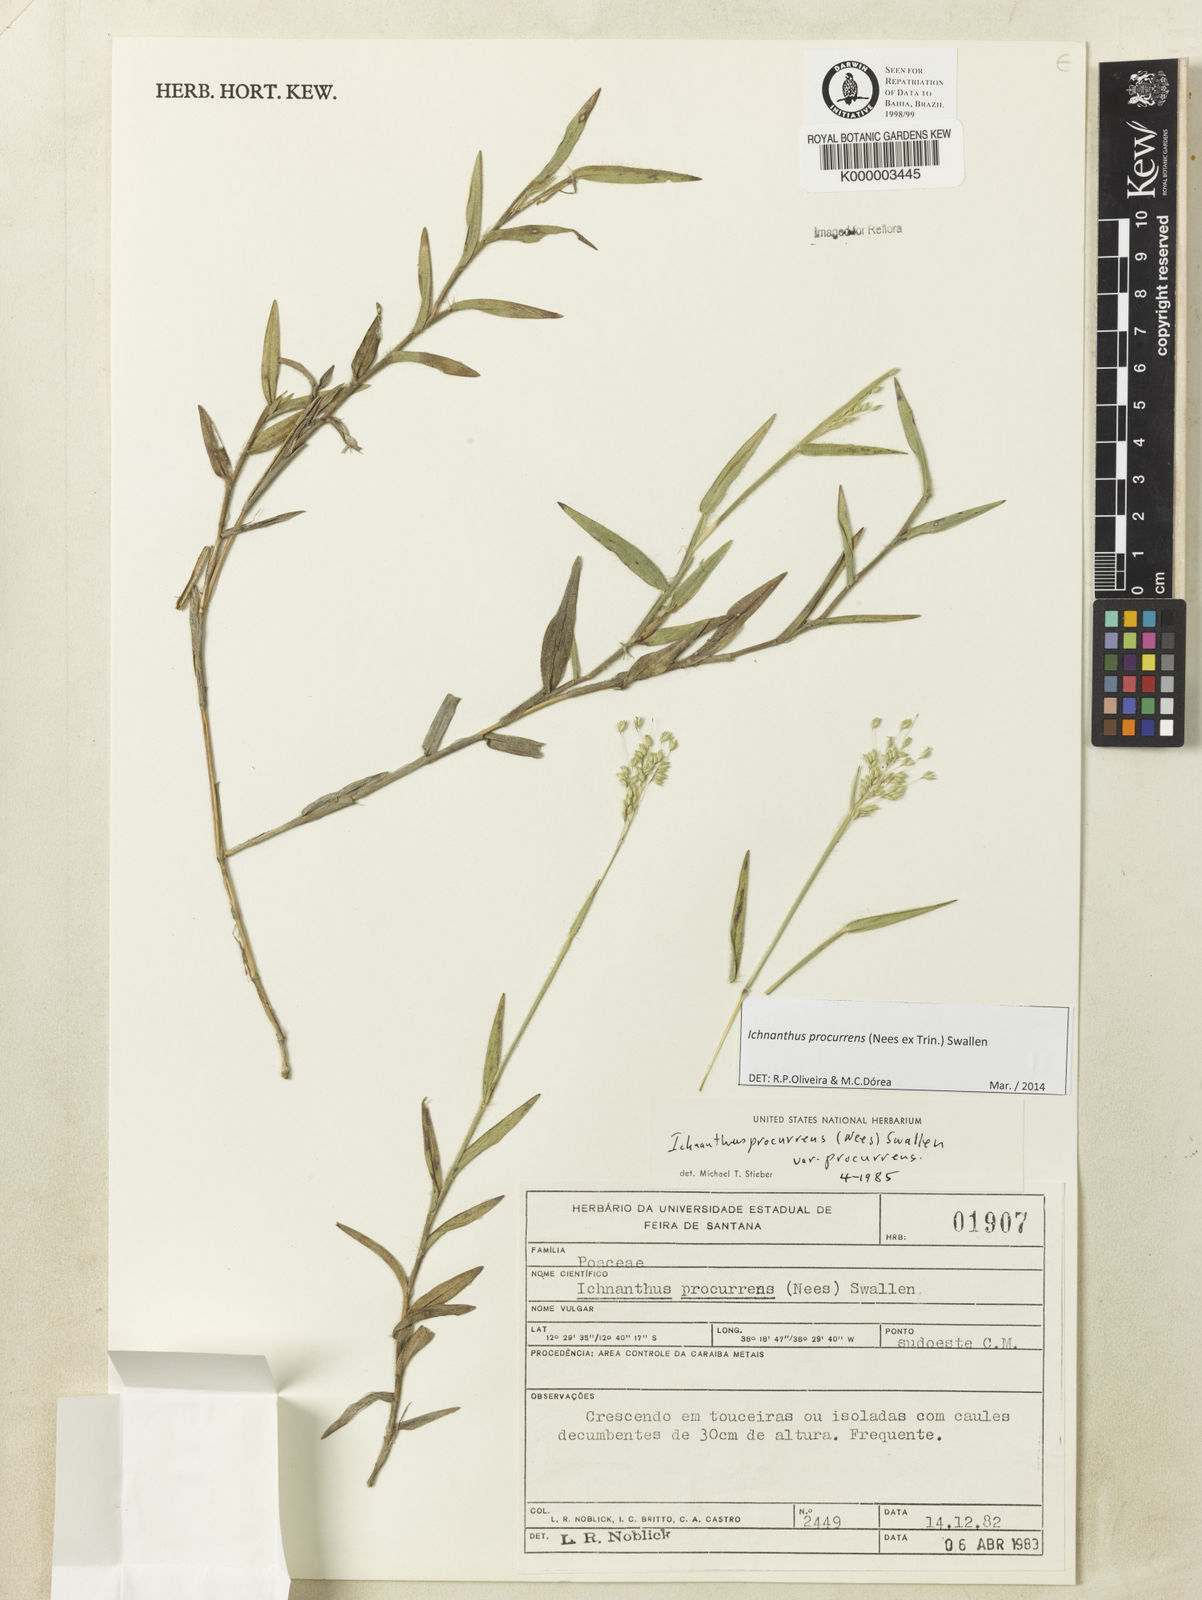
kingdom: Plantae
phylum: Tracheophyta
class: Liliopsida
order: Poales
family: Poaceae
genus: Oedochloa
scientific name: Oedochloa procurrens
